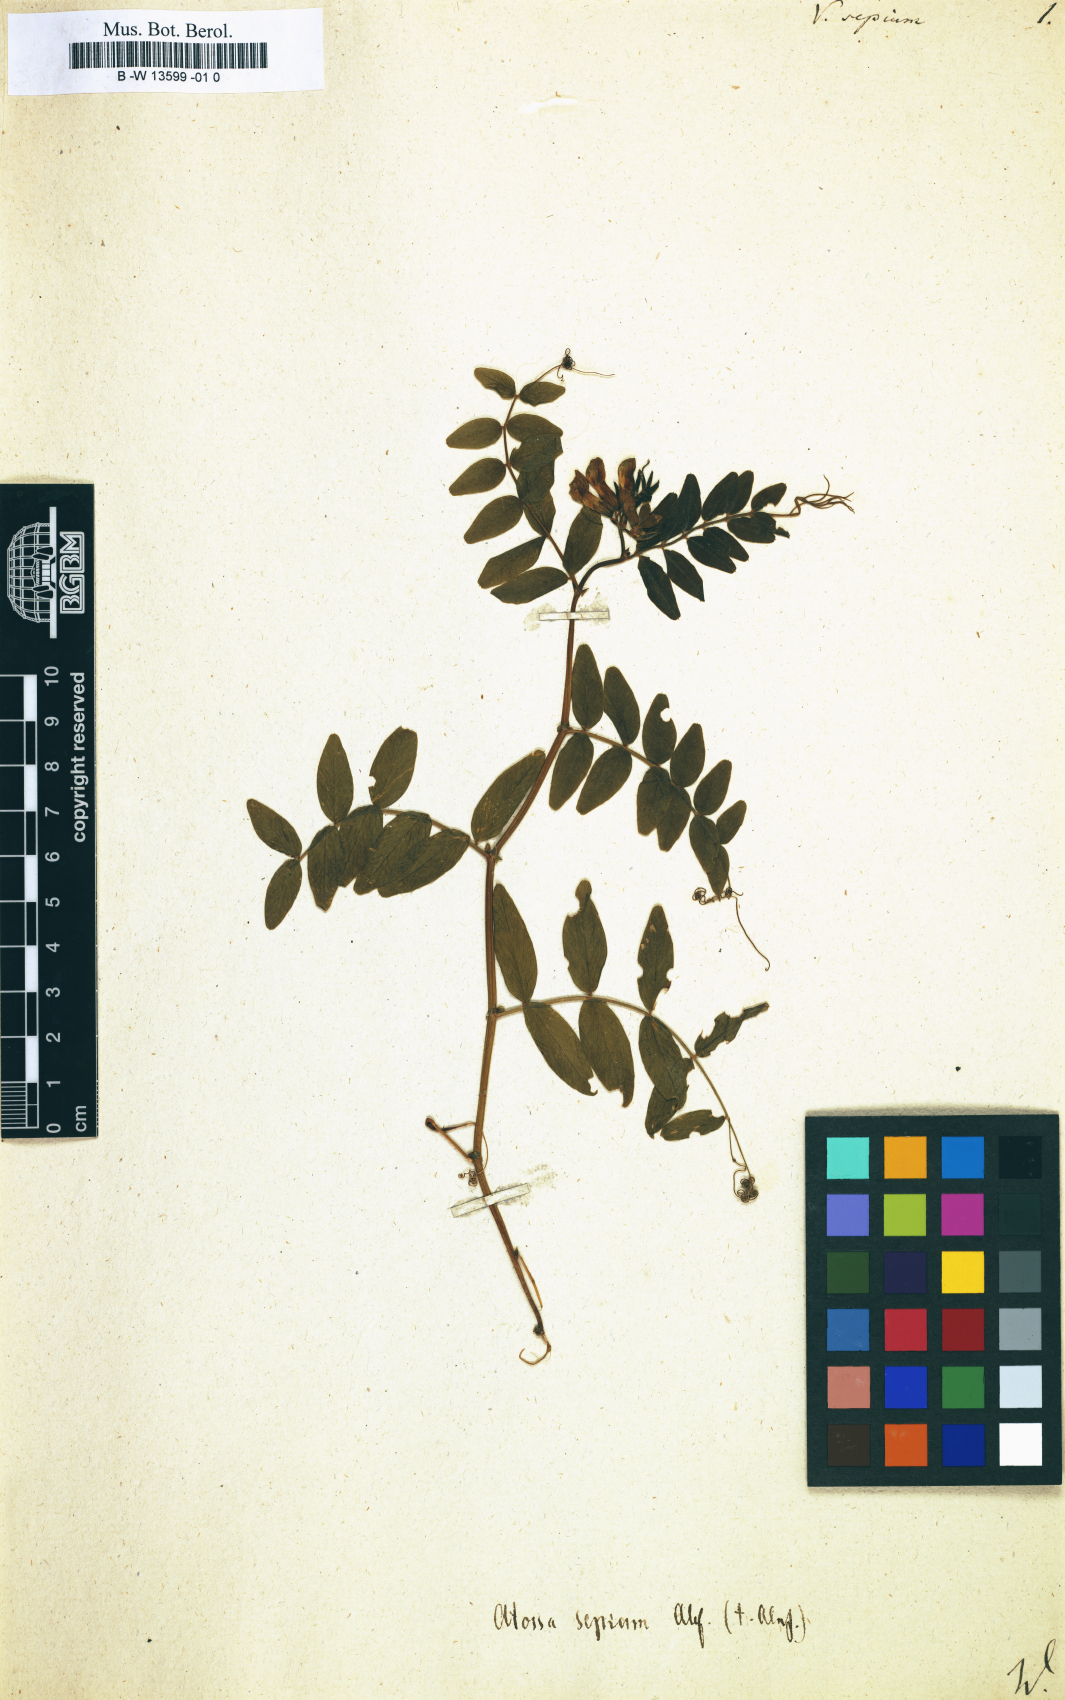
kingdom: Plantae
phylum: Tracheophyta
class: Magnoliopsida
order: Fabales
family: Fabaceae
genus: Vicia
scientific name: Vicia sepium
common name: Bush vetch
